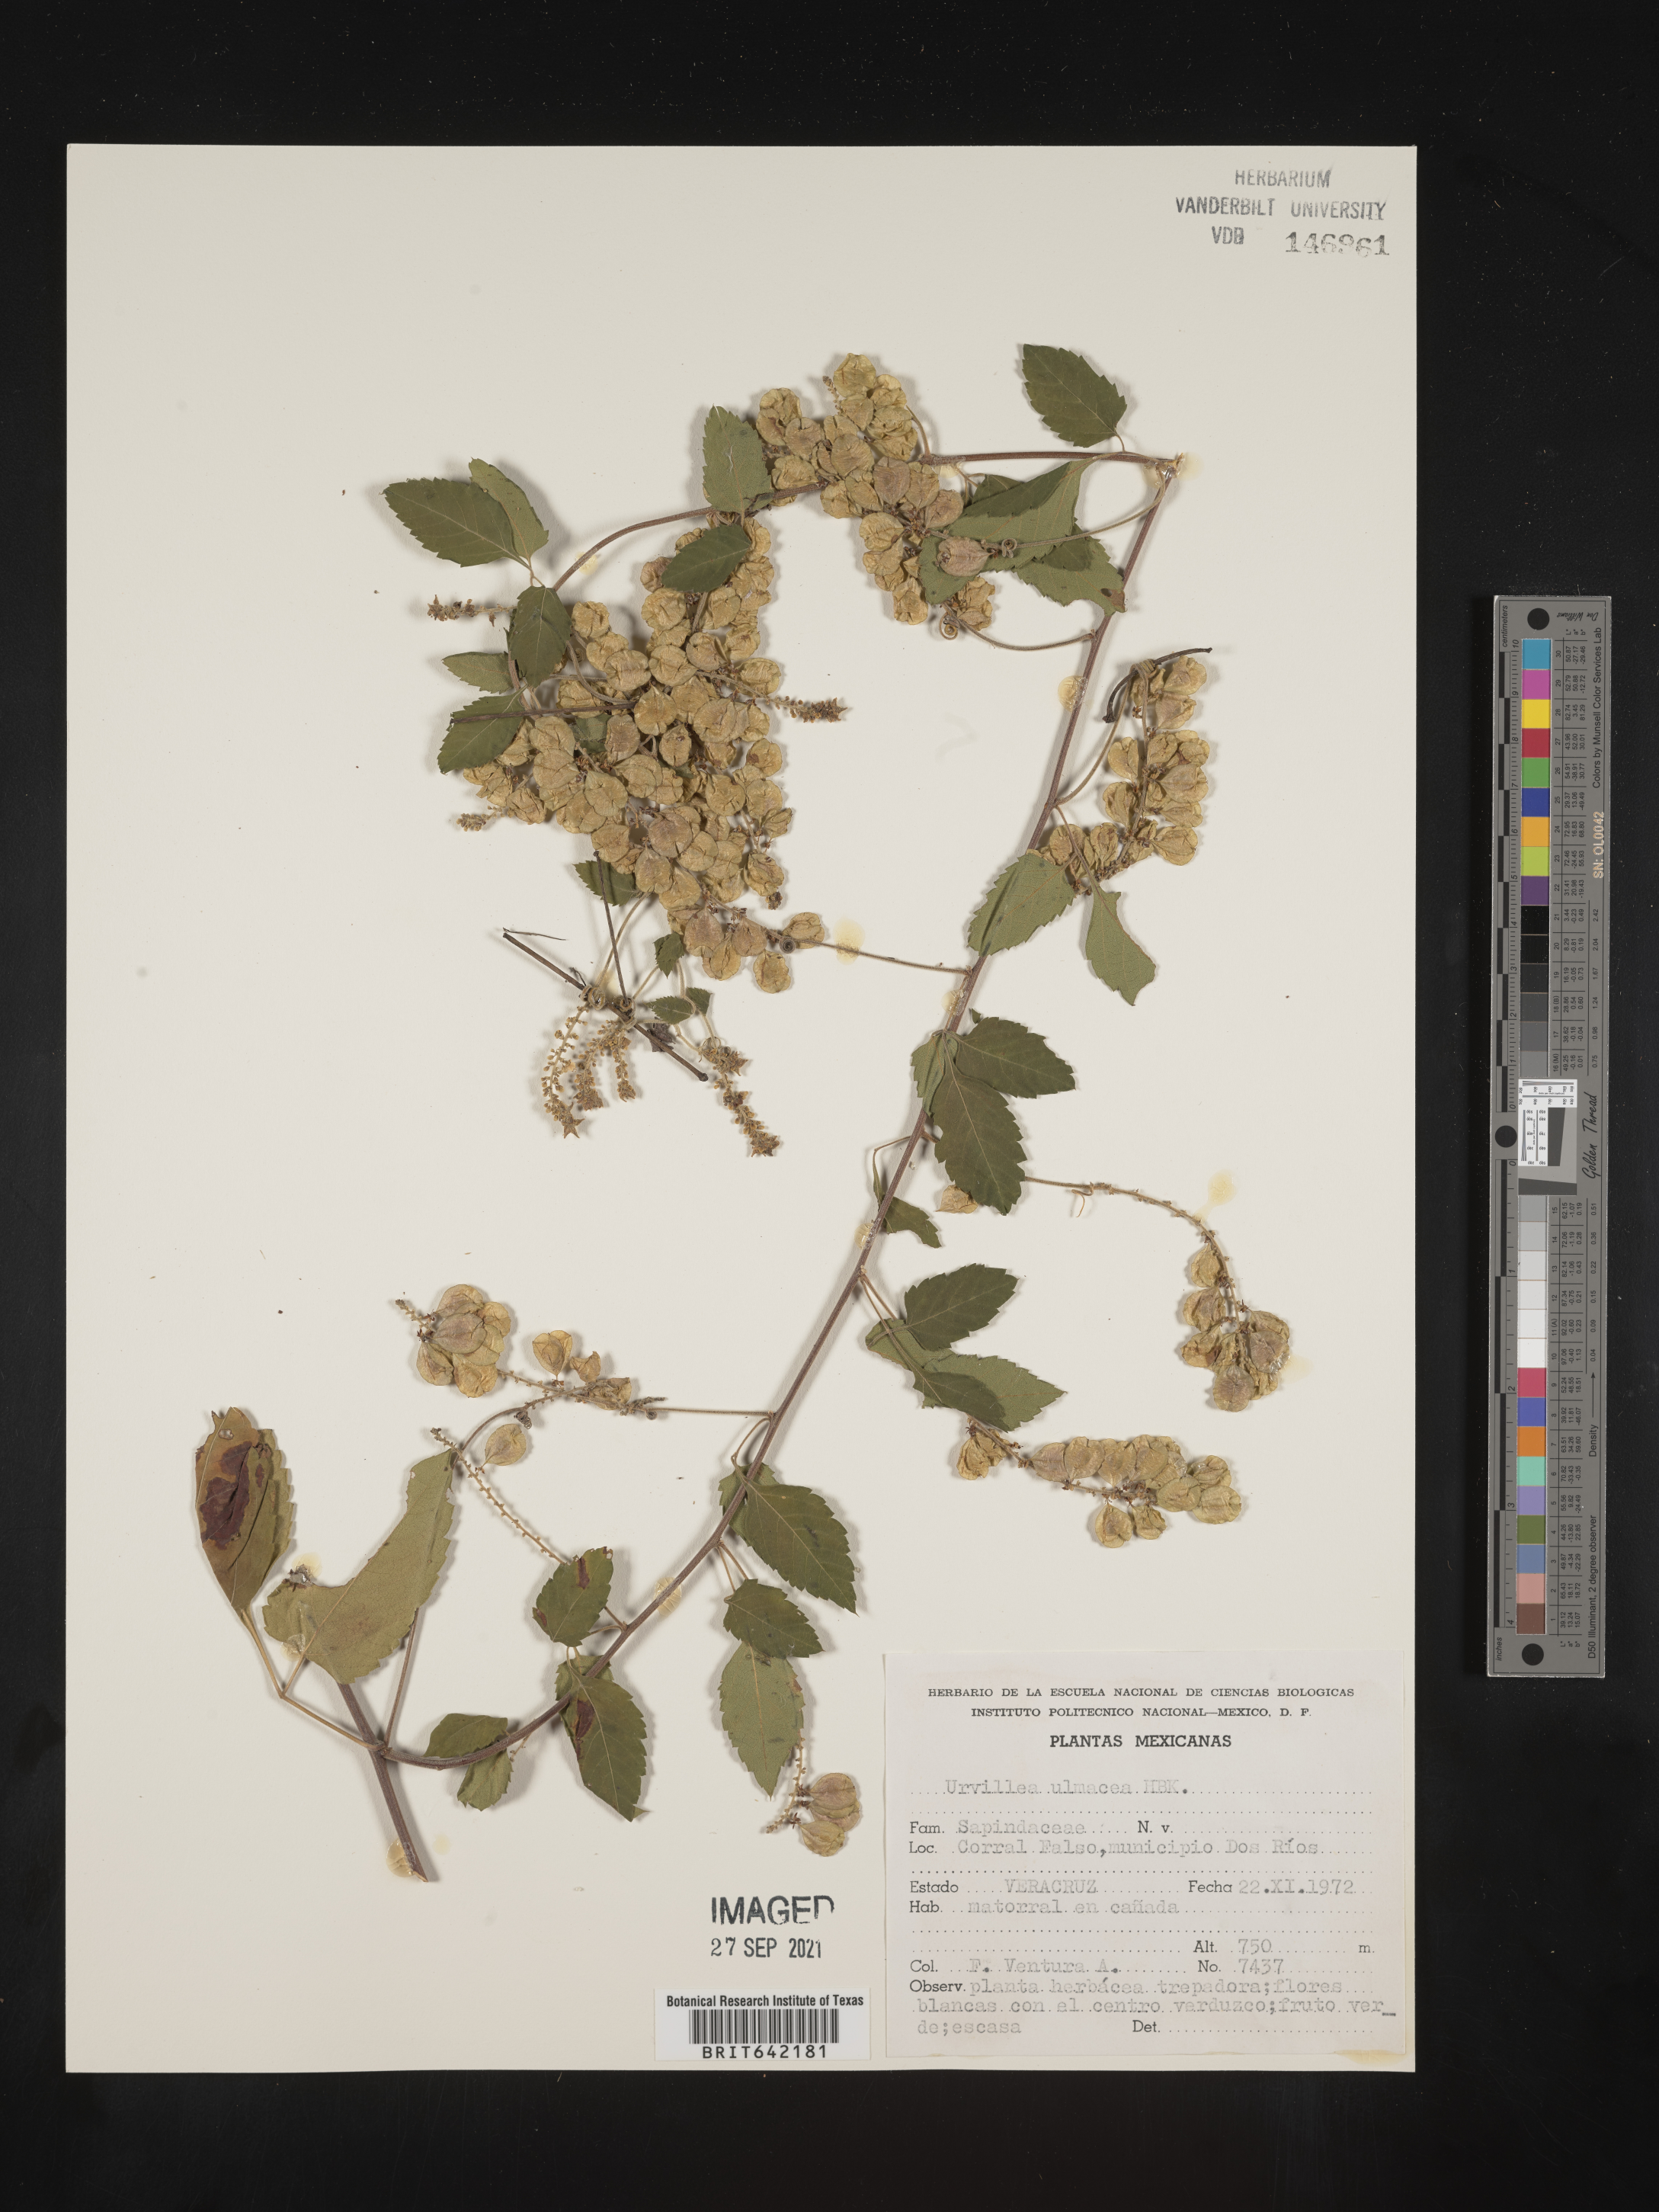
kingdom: Plantae
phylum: Tracheophyta
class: Magnoliopsida
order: Sapindales
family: Sapindaceae
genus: Urvillea
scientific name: Urvillea
